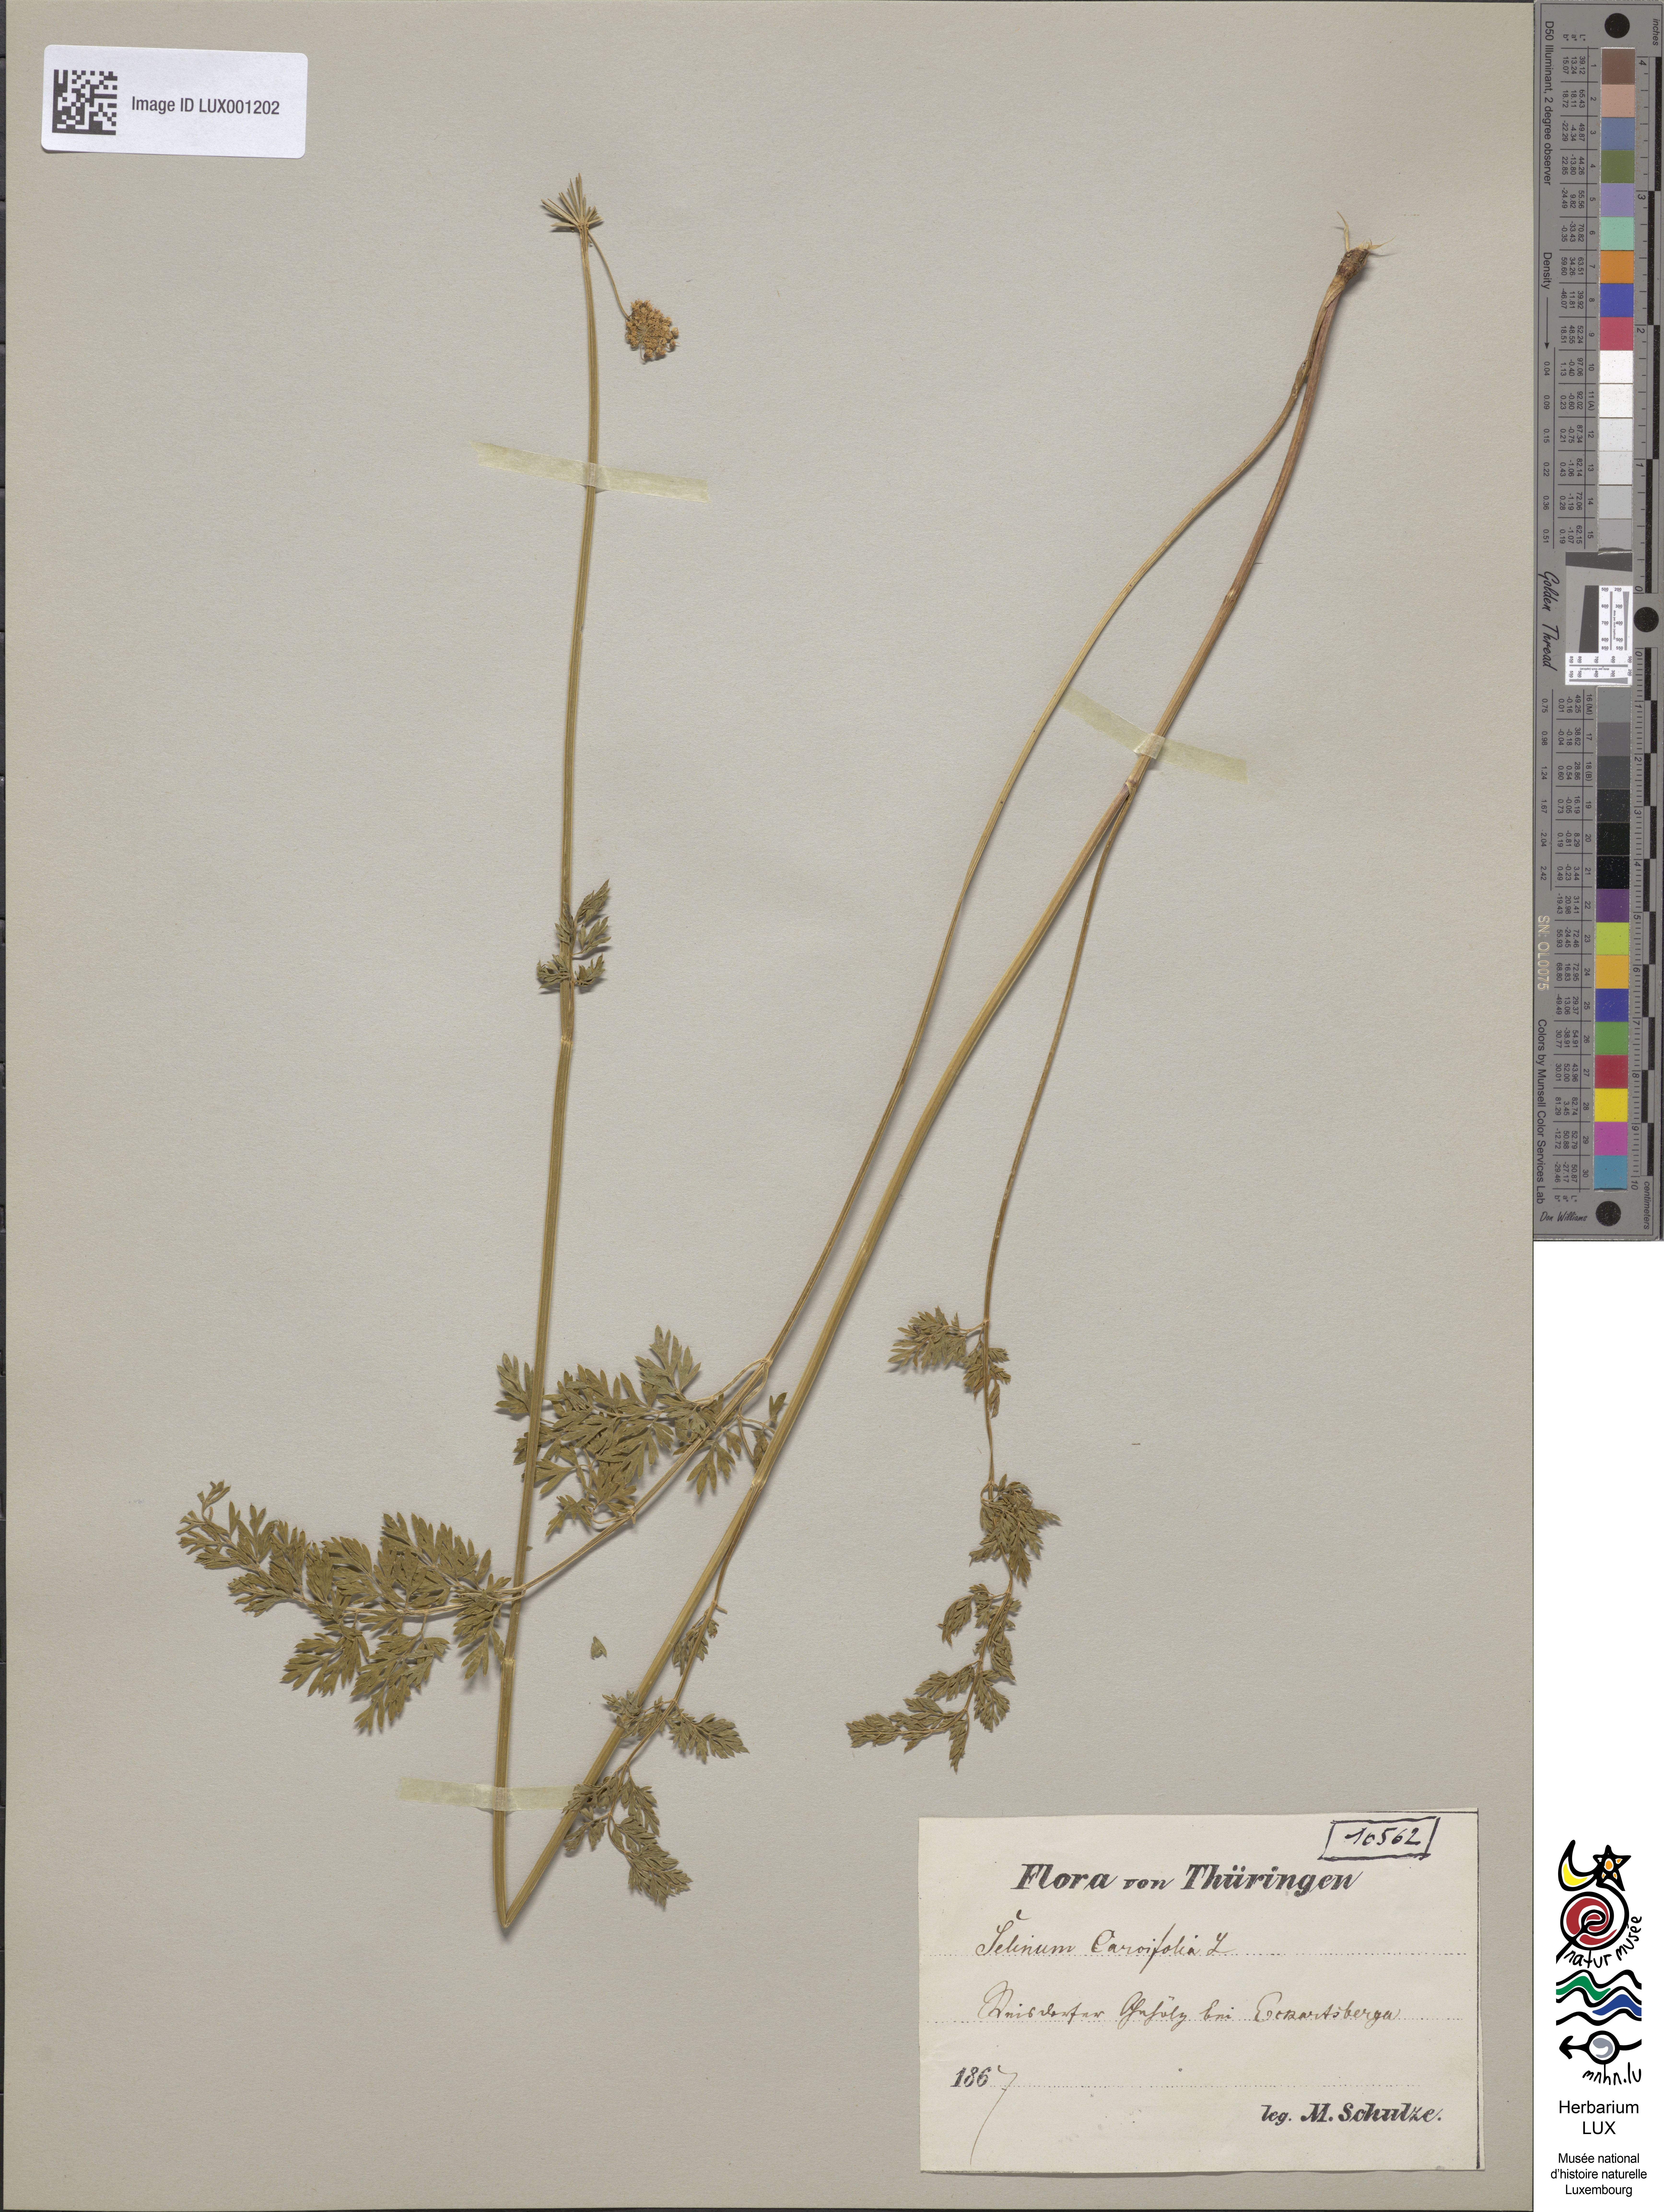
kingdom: Plantae
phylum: Tracheophyta
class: Magnoliopsida
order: Apiales
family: Apiaceae
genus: Selinum
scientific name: Selinum carvifolia
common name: Cambridge milk-parsley
